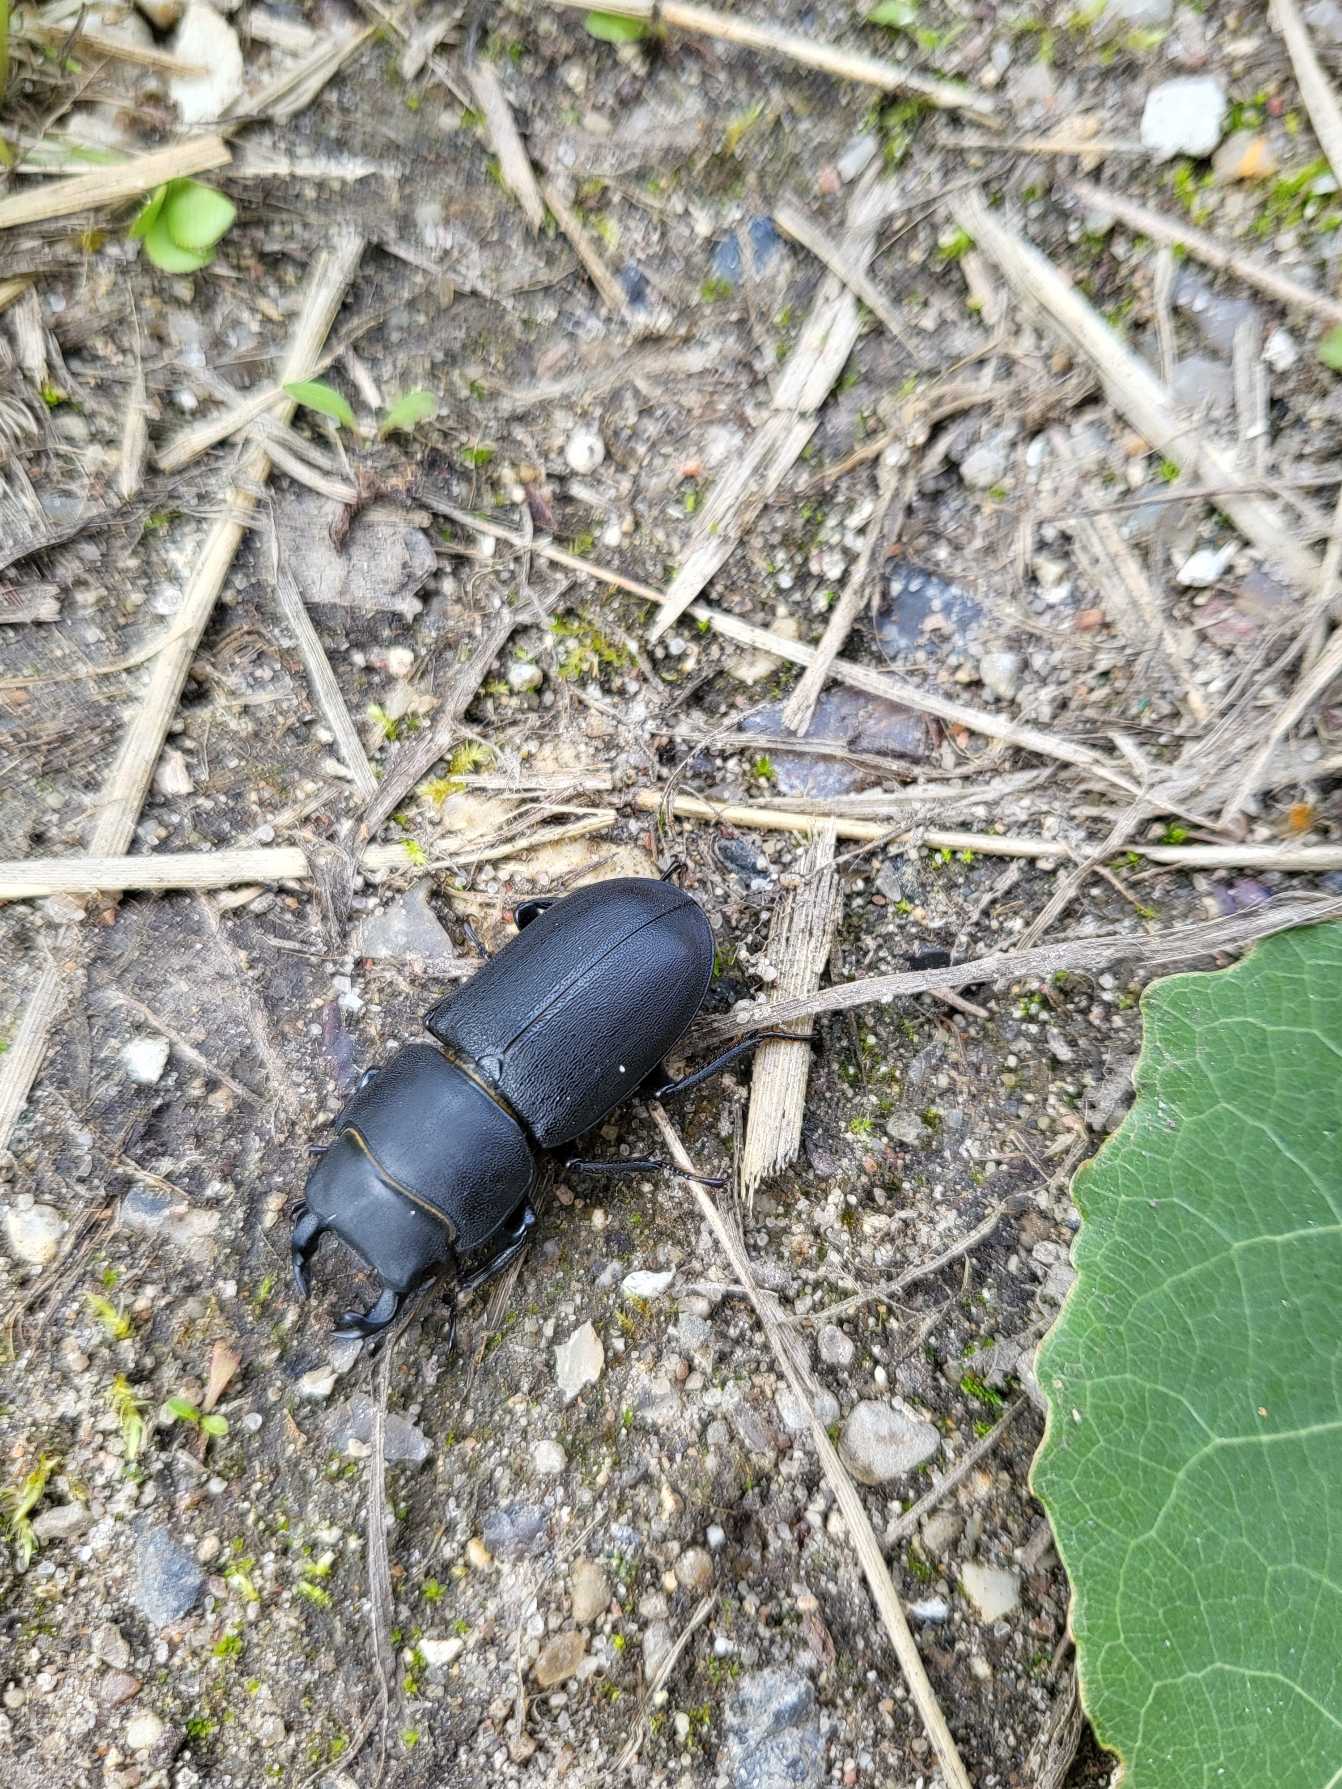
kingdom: Animalia
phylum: Arthropoda
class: Insecta
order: Coleoptera
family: Lucanidae
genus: Dorcus
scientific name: Dorcus parallelipipedus
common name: Bøghjort
